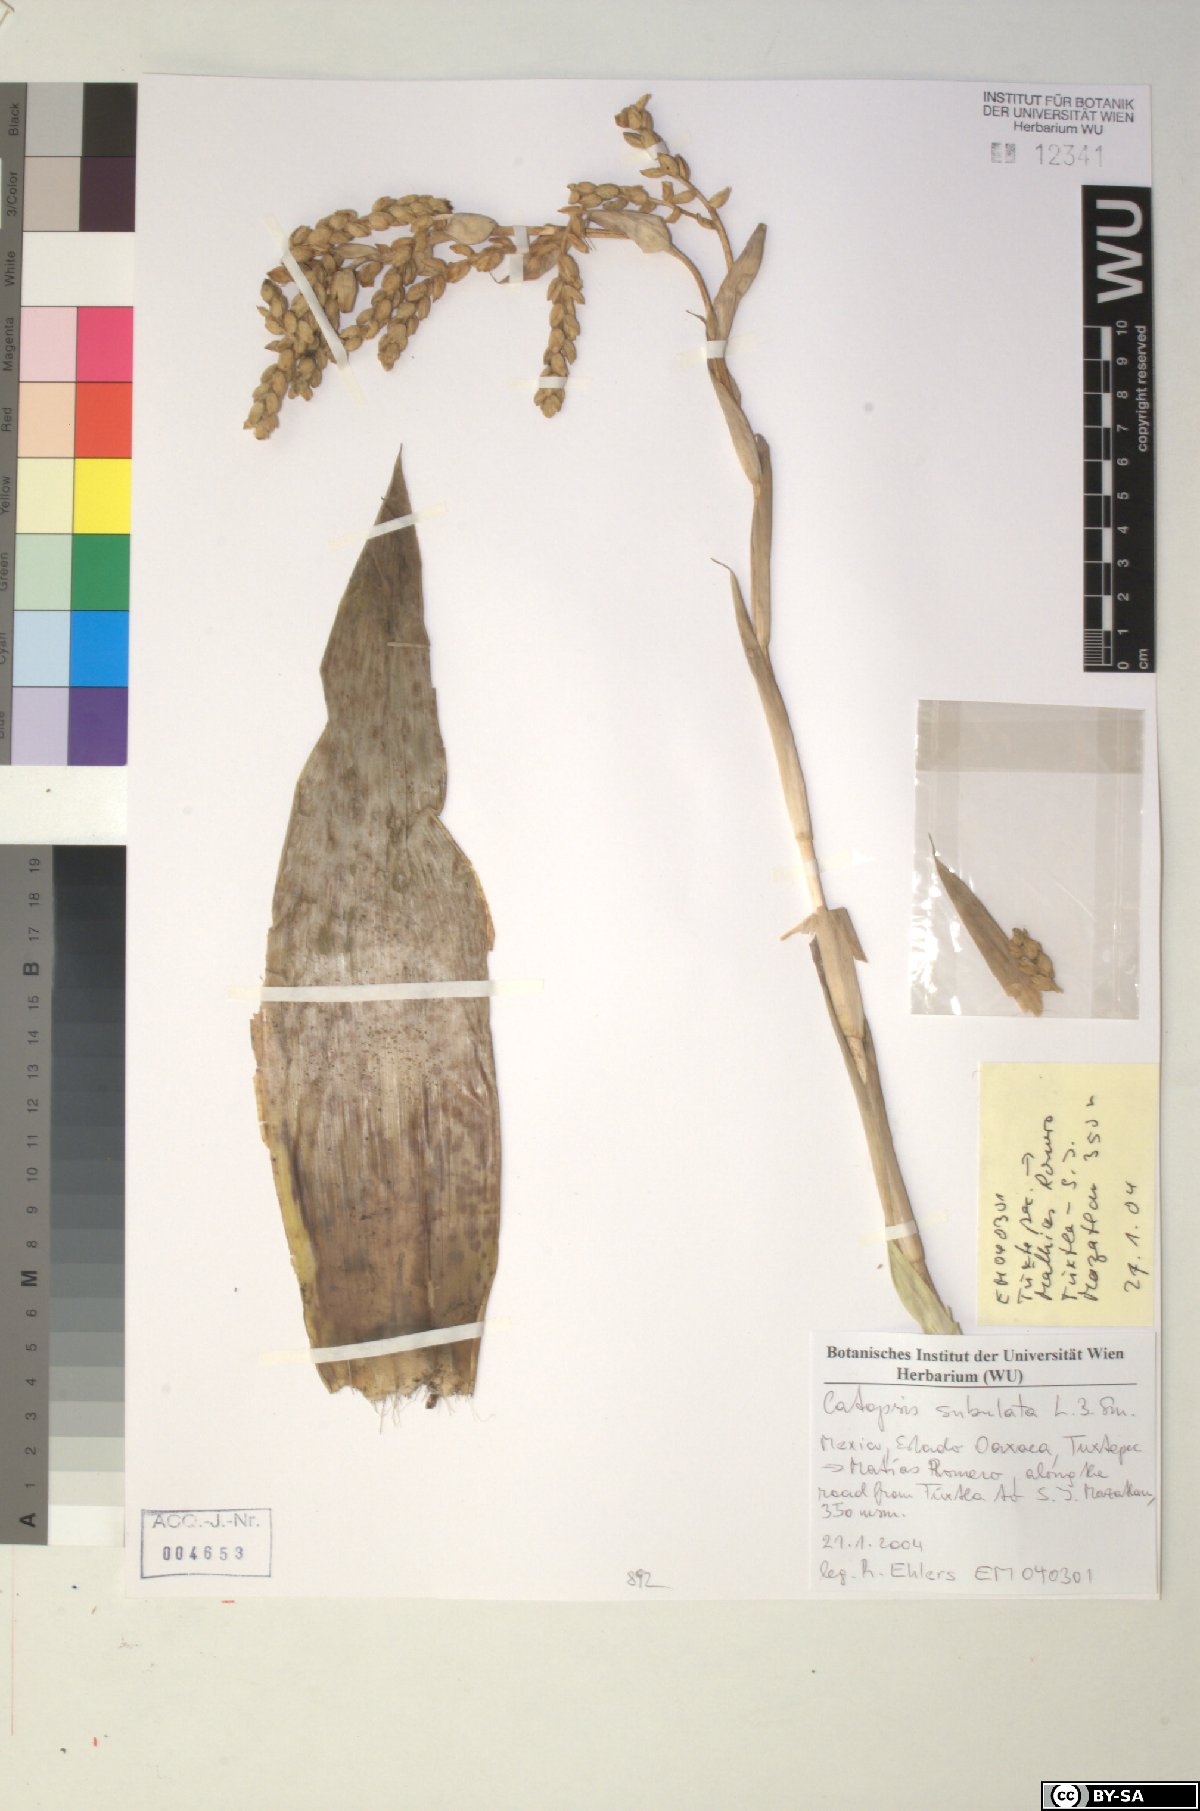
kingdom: Plantae
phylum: Tracheophyta
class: Liliopsida
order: Poales
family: Bromeliaceae
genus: Catopsis
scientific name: Catopsis subulata
